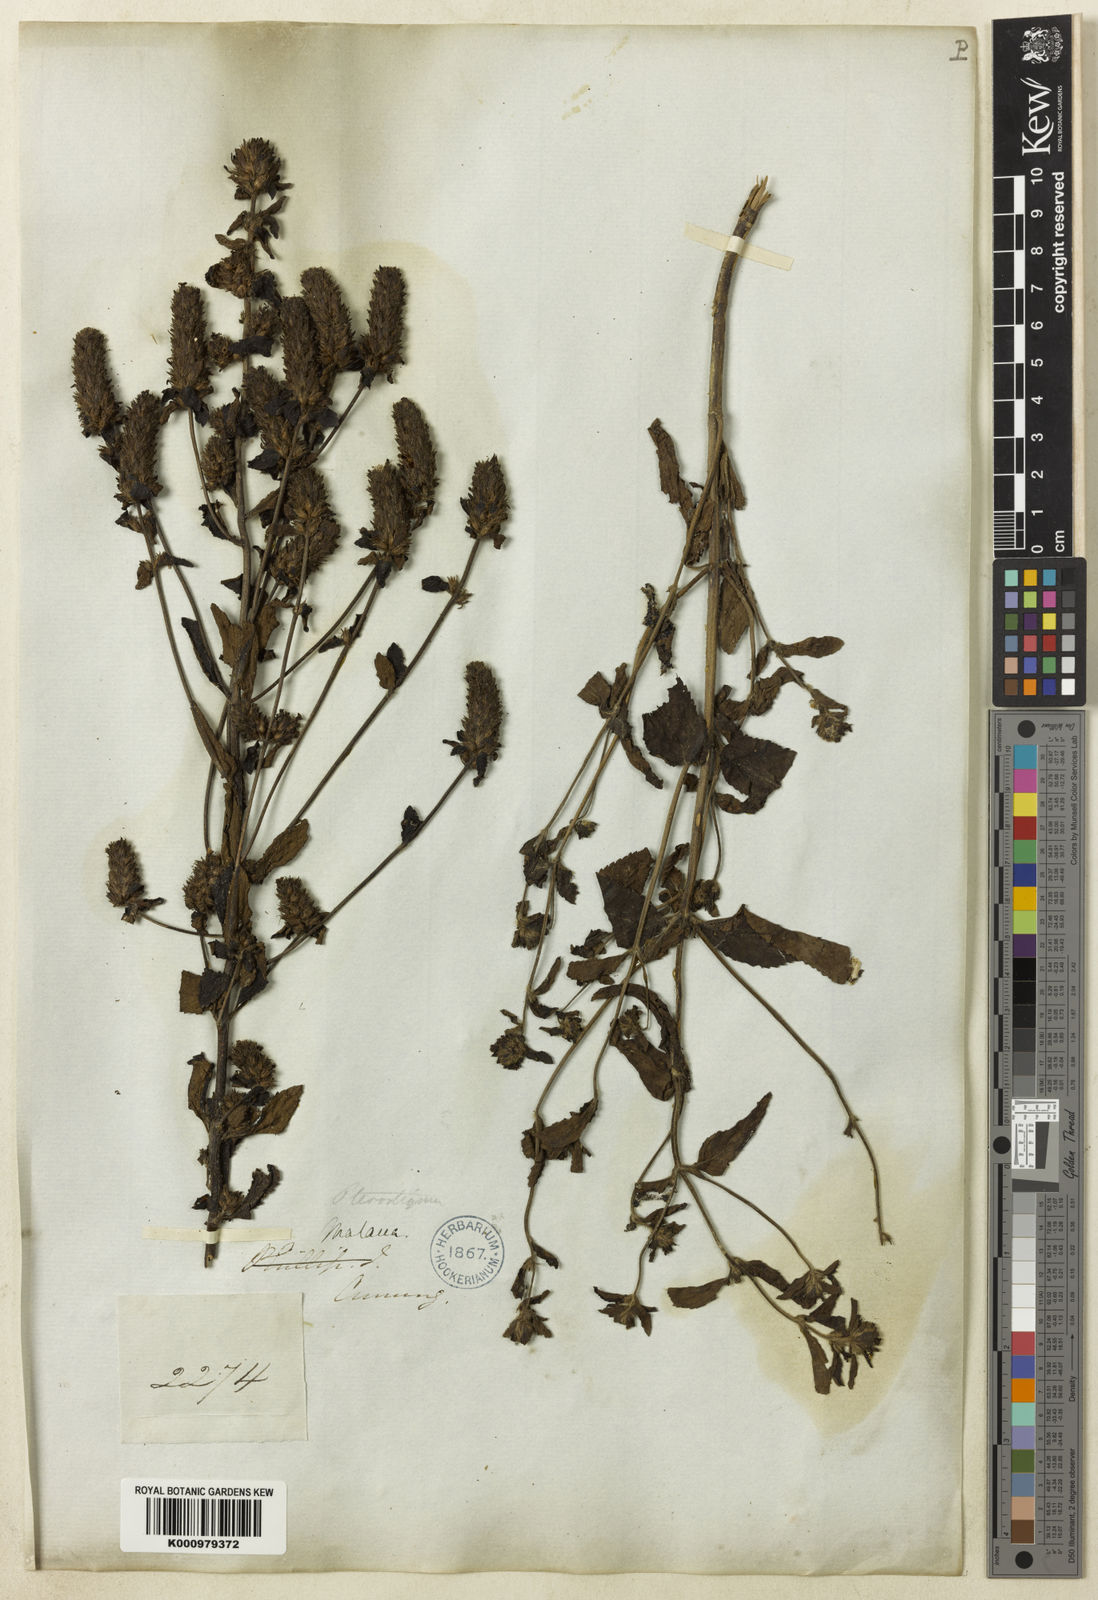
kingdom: Plantae
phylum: Tracheophyta
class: Magnoliopsida
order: Lamiales
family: Plantaginaceae
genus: Adenosma
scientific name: Adenosma indiana
